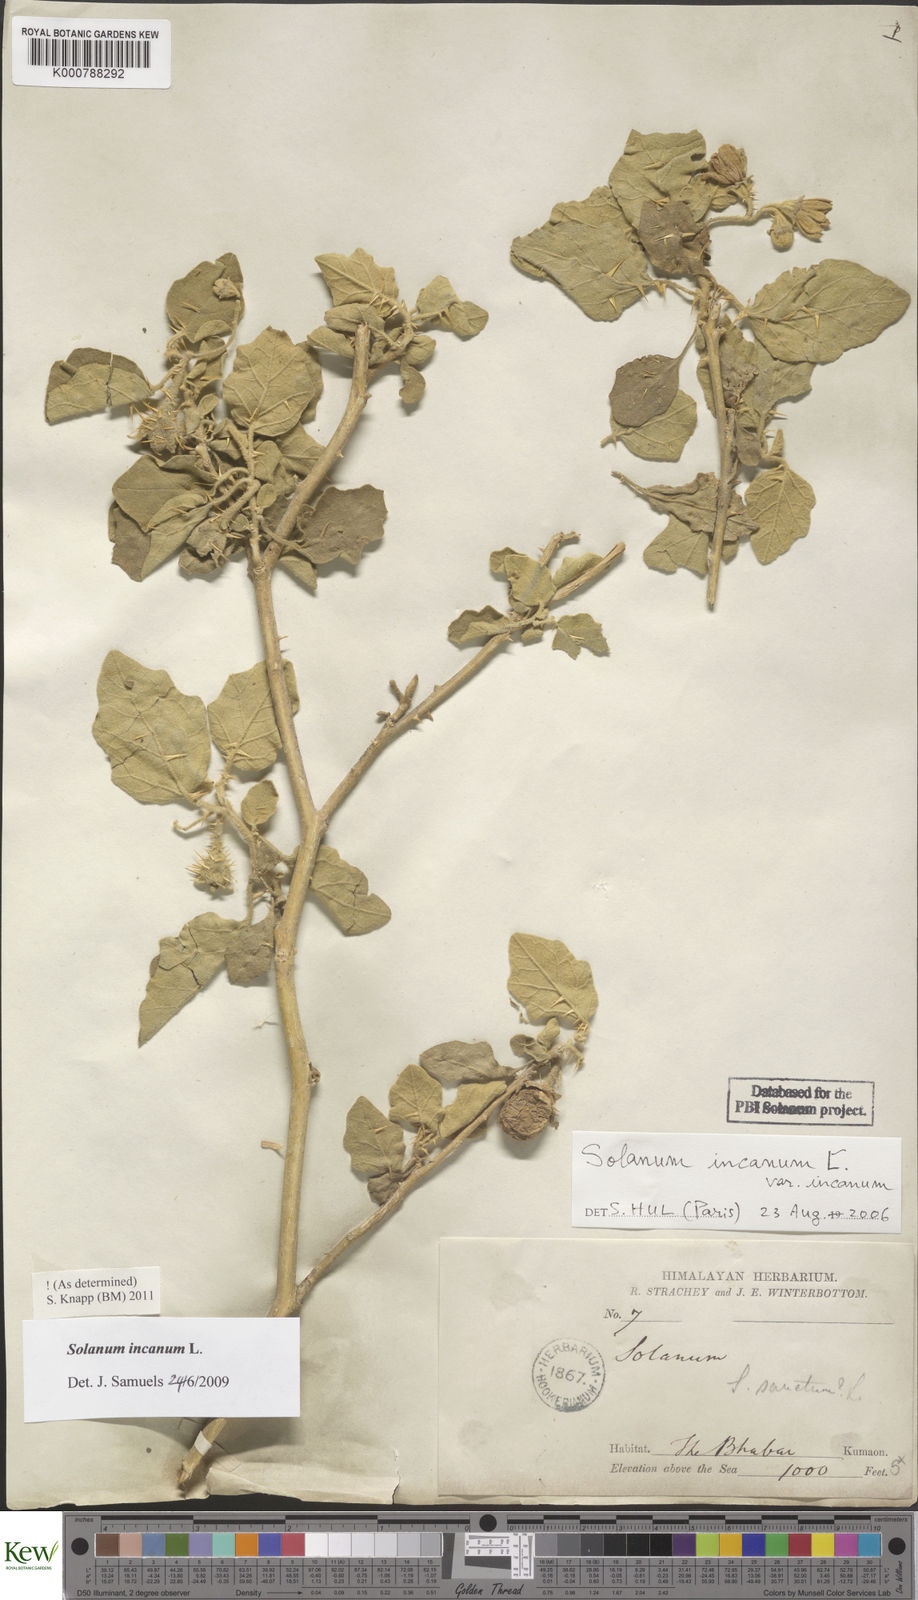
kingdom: Plantae
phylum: Tracheophyta
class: Magnoliopsida
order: Solanales
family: Solanaceae
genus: Solanum
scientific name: Solanum insanum
